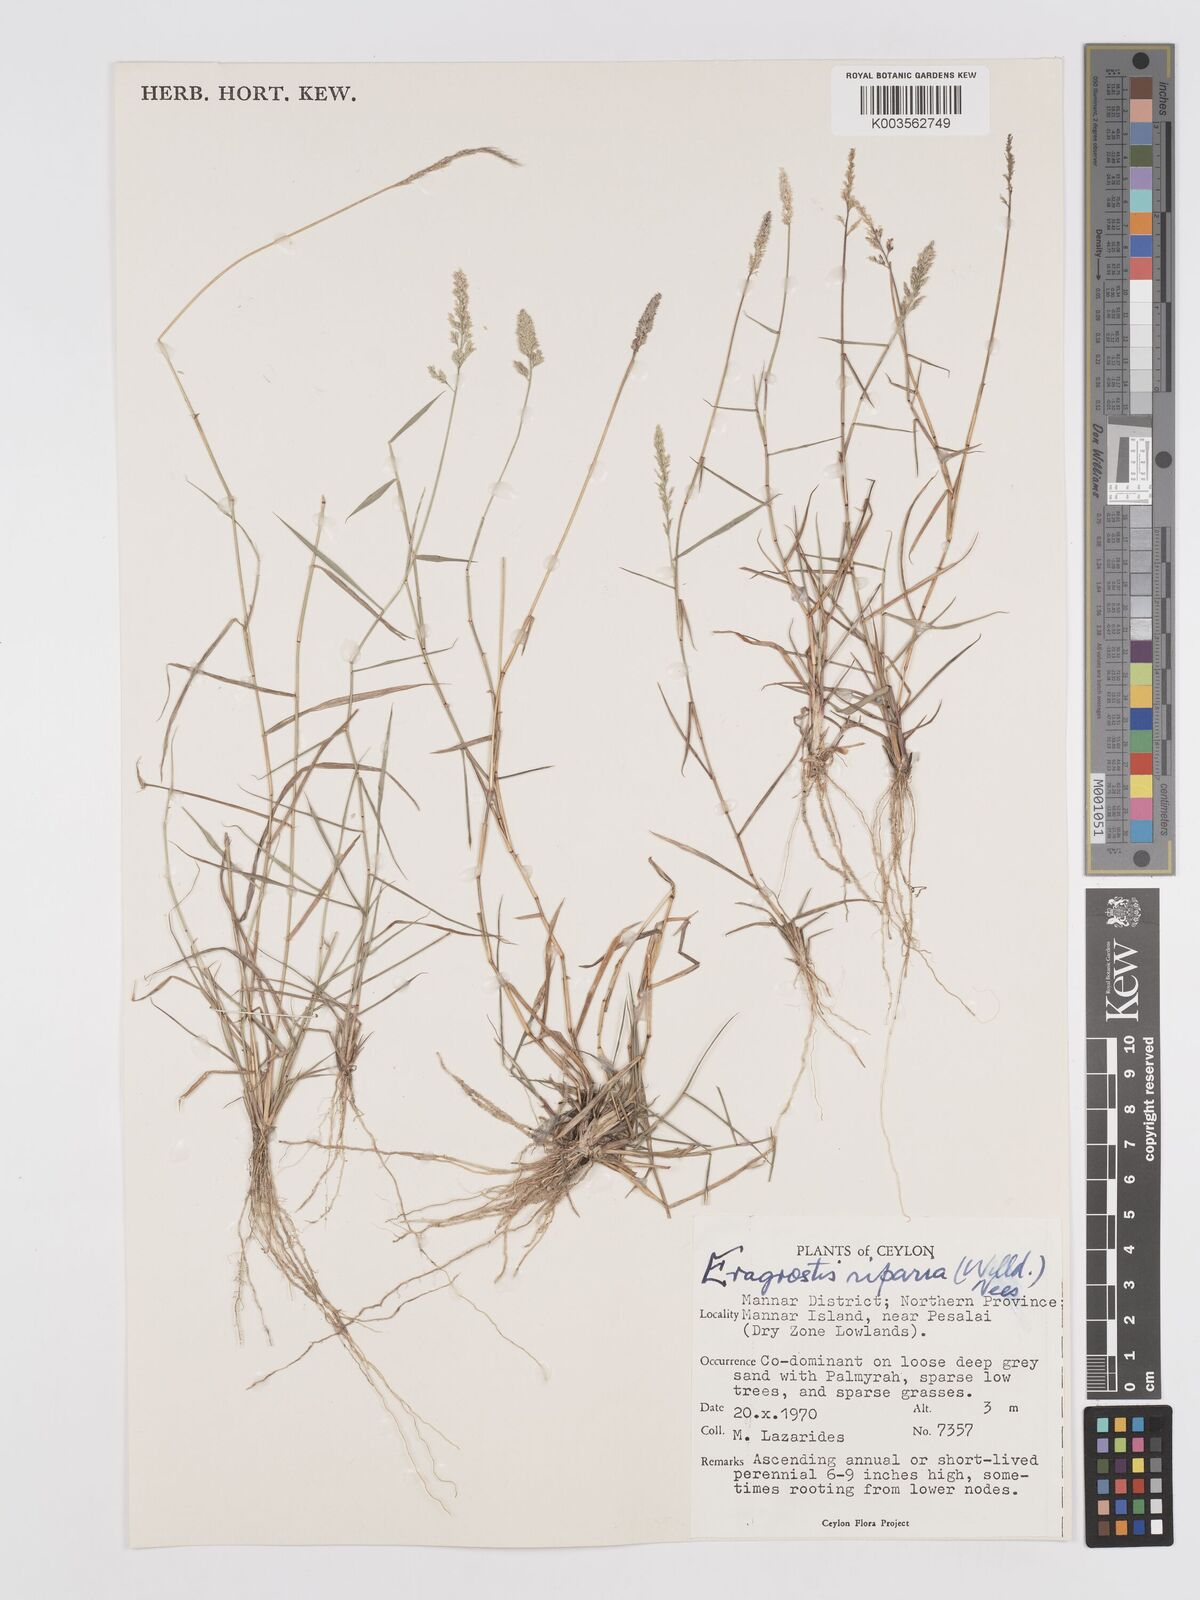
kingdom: Plantae
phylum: Tracheophyta
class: Liliopsida
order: Poales
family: Poaceae
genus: Eragrostis
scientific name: Eragrostis riparia
